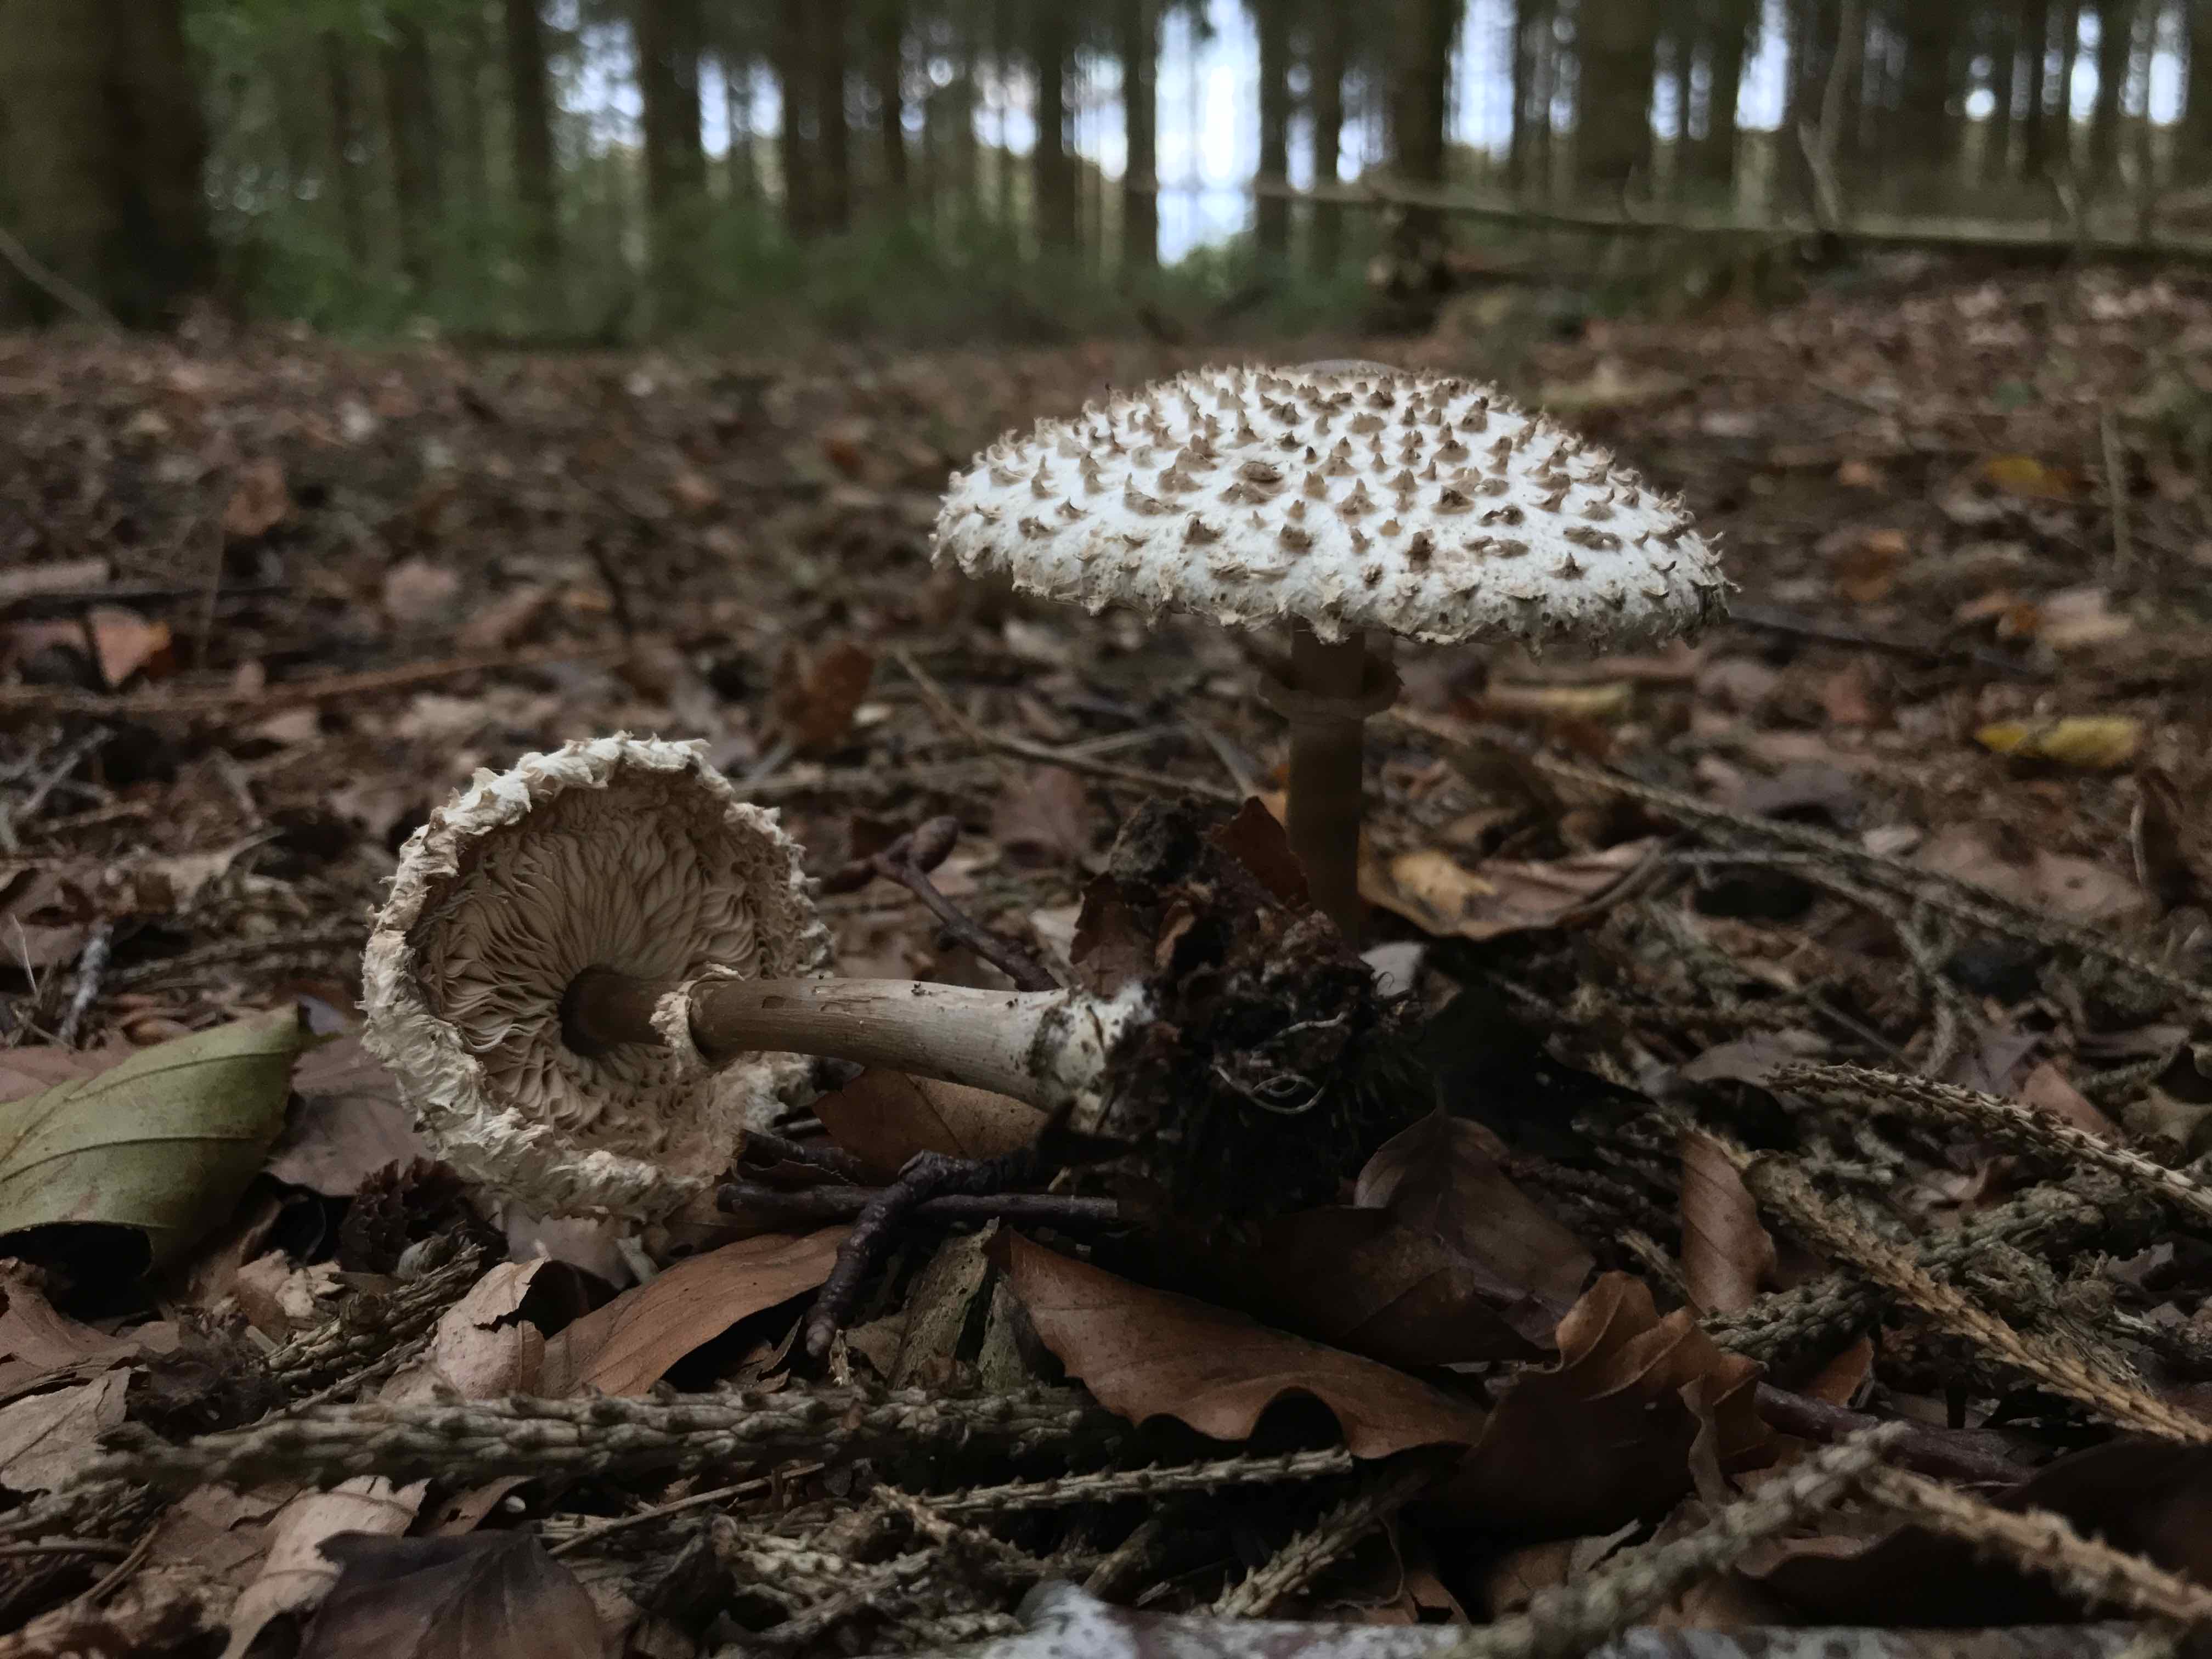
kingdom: Fungi
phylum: Basidiomycota
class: Agaricomycetes
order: Agaricales
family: Agaricaceae
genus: Leucoagaricus
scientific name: Leucoagaricus nympharum
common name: gran-silkehat
